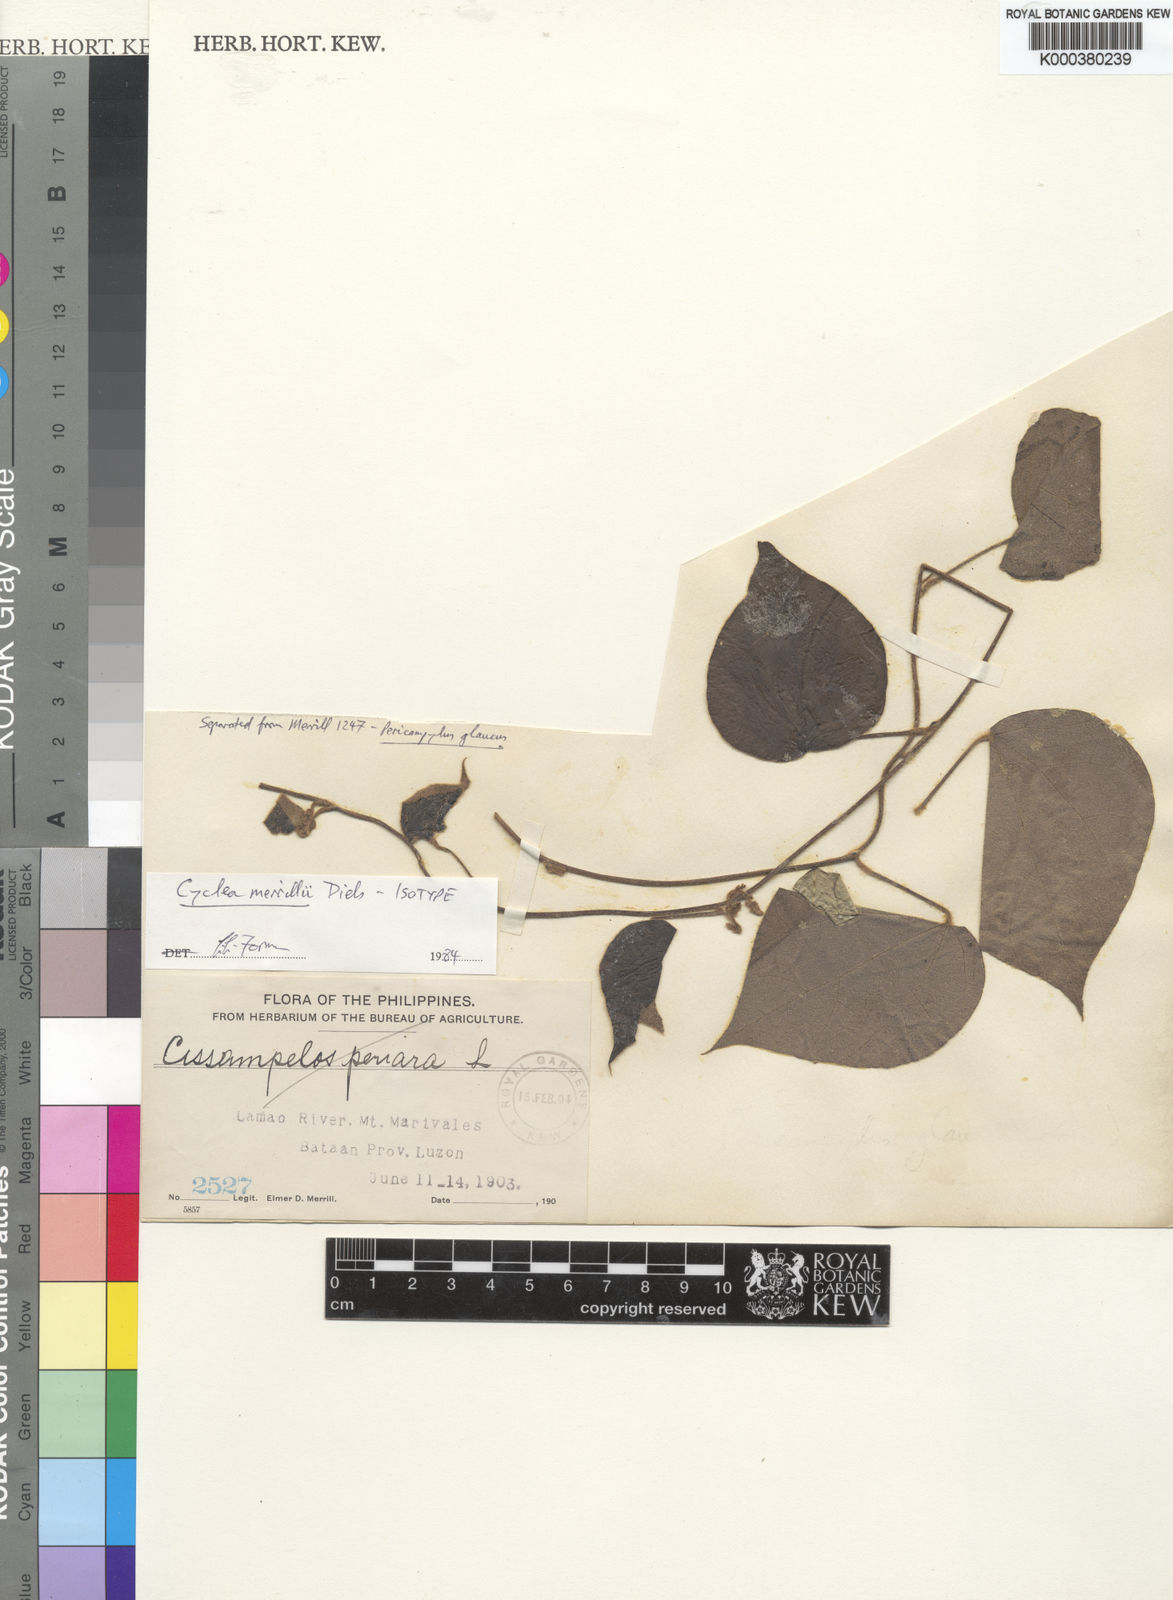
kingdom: Plantae
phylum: Tracheophyta
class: Magnoliopsida
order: Ranunculales
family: Menispermaceae
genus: Cyclea
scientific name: Cyclea merrillii
